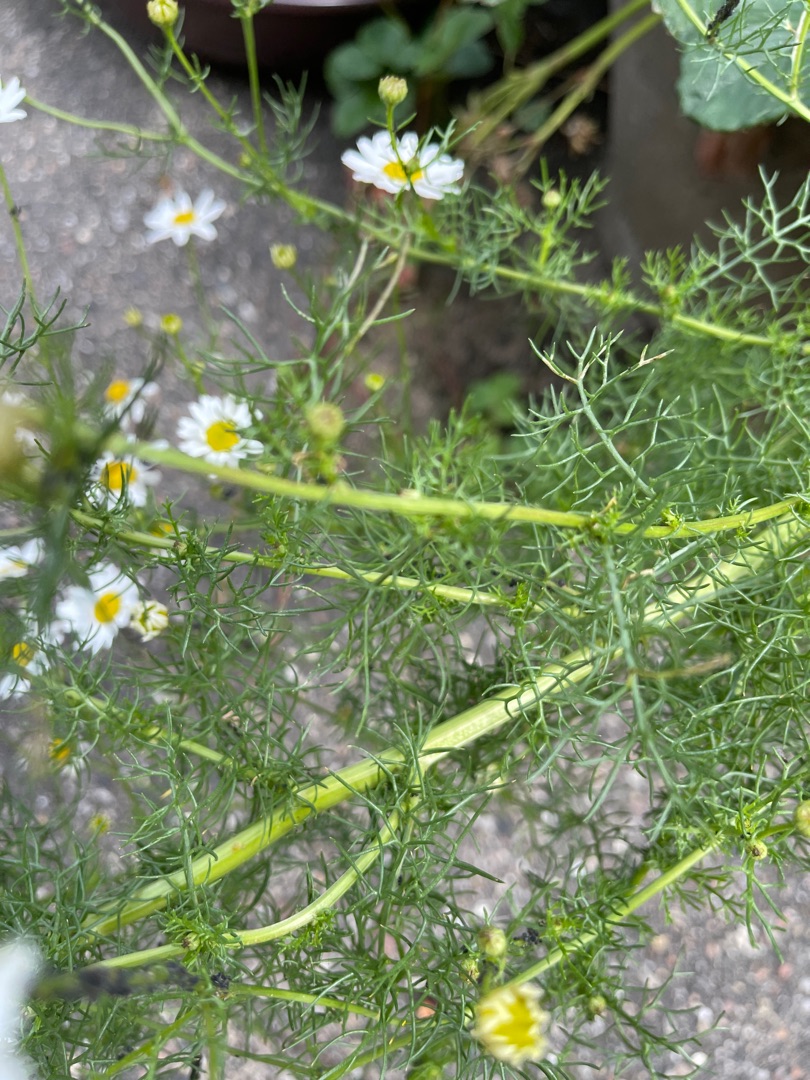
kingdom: Plantae
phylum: Tracheophyta
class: Magnoliopsida
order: Asterales
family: Asteraceae
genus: Tripleurospermum
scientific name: Tripleurospermum inodorum
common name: Lugtløs kamille
